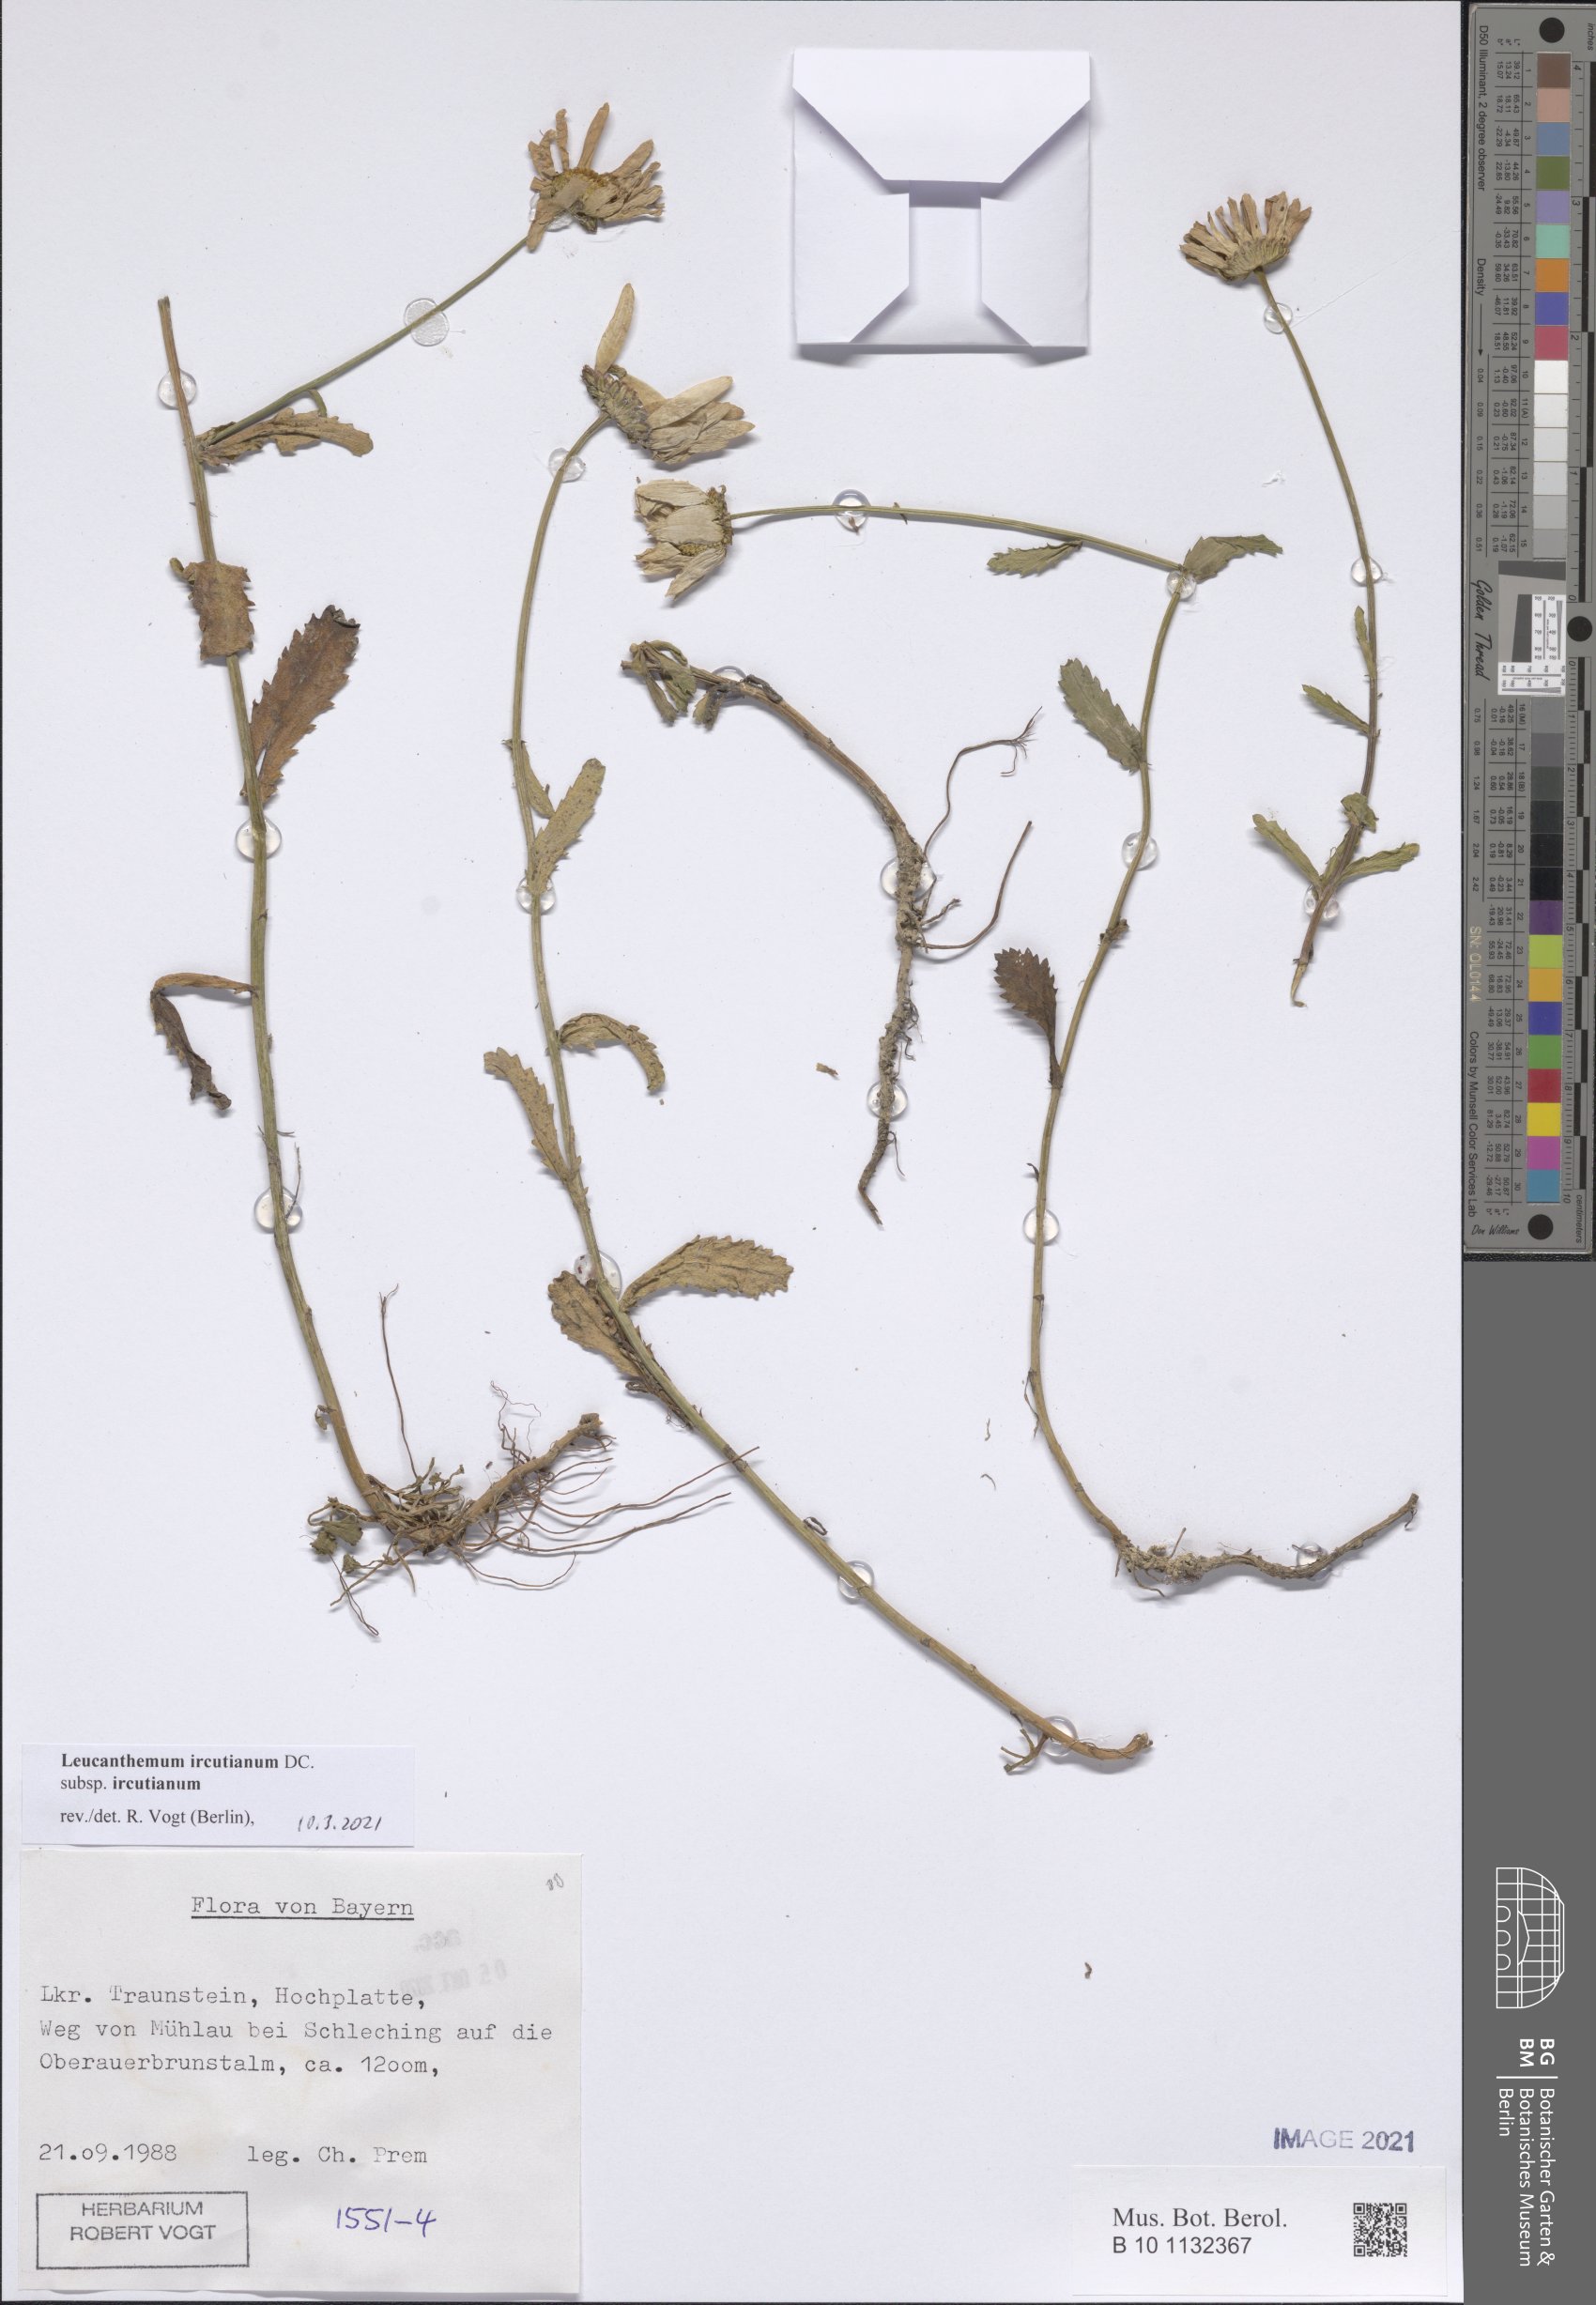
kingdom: Plantae
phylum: Tracheophyta
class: Magnoliopsida
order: Asterales
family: Asteraceae
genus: Leucanthemum
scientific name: Leucanthemum ircutianum
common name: Daisy
